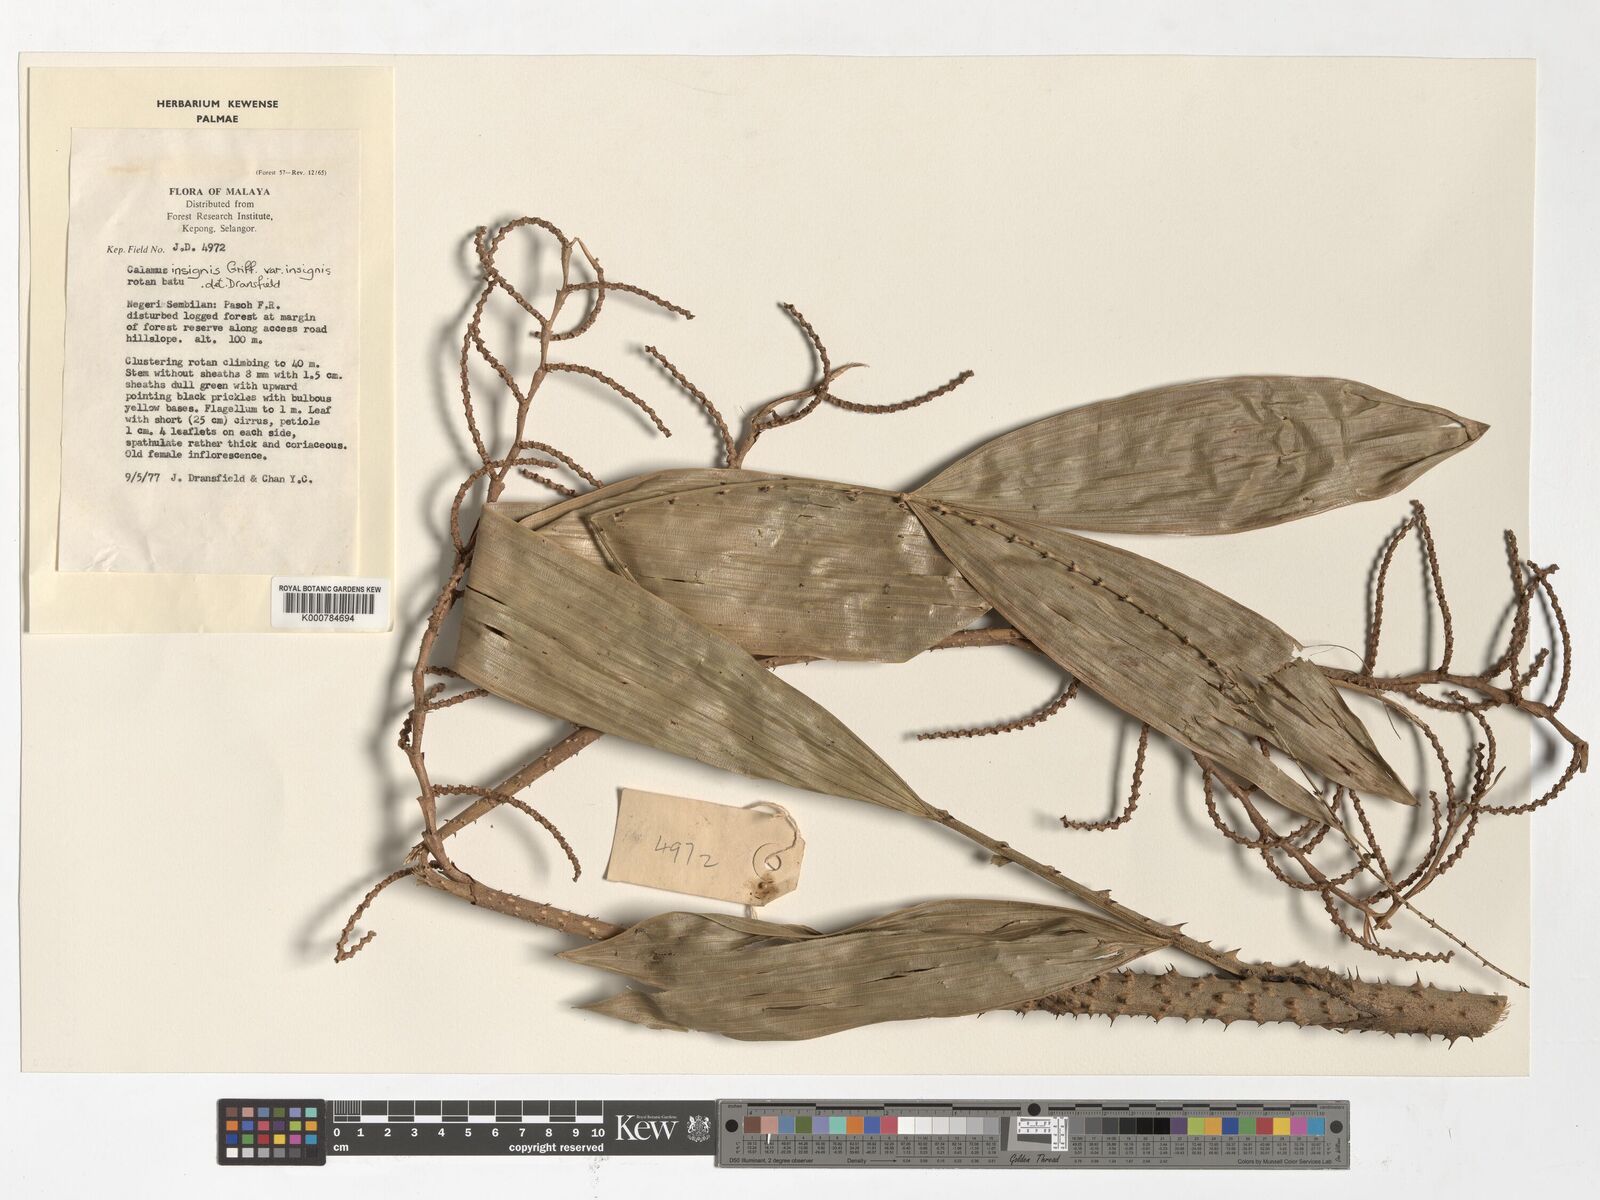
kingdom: Plantae
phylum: Tracheophyta
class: Liliopsida
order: Arecales
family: Arecaceae
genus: Calamus
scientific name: Calamus insignis
